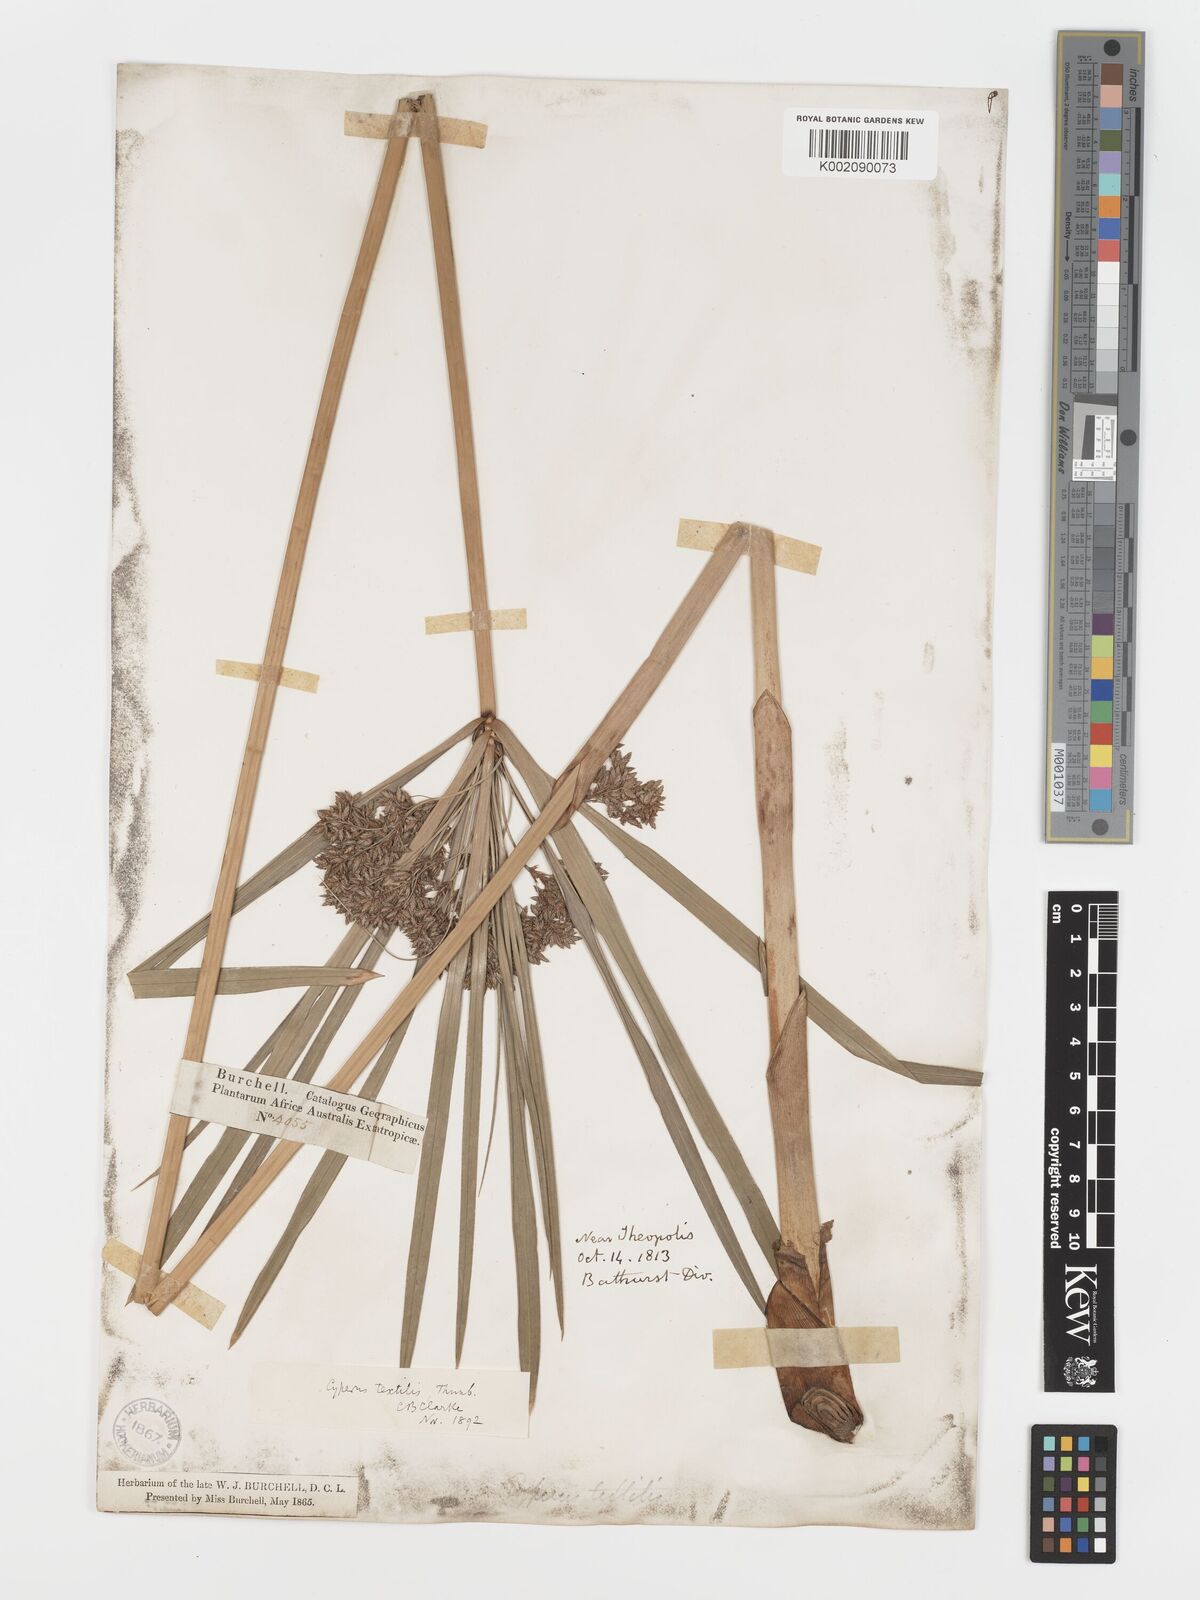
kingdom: Plantae
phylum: Tracheophyta
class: Liliopsida
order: Poales
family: Cyperaceae
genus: Cyperus
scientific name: Cyperus alternifolius
